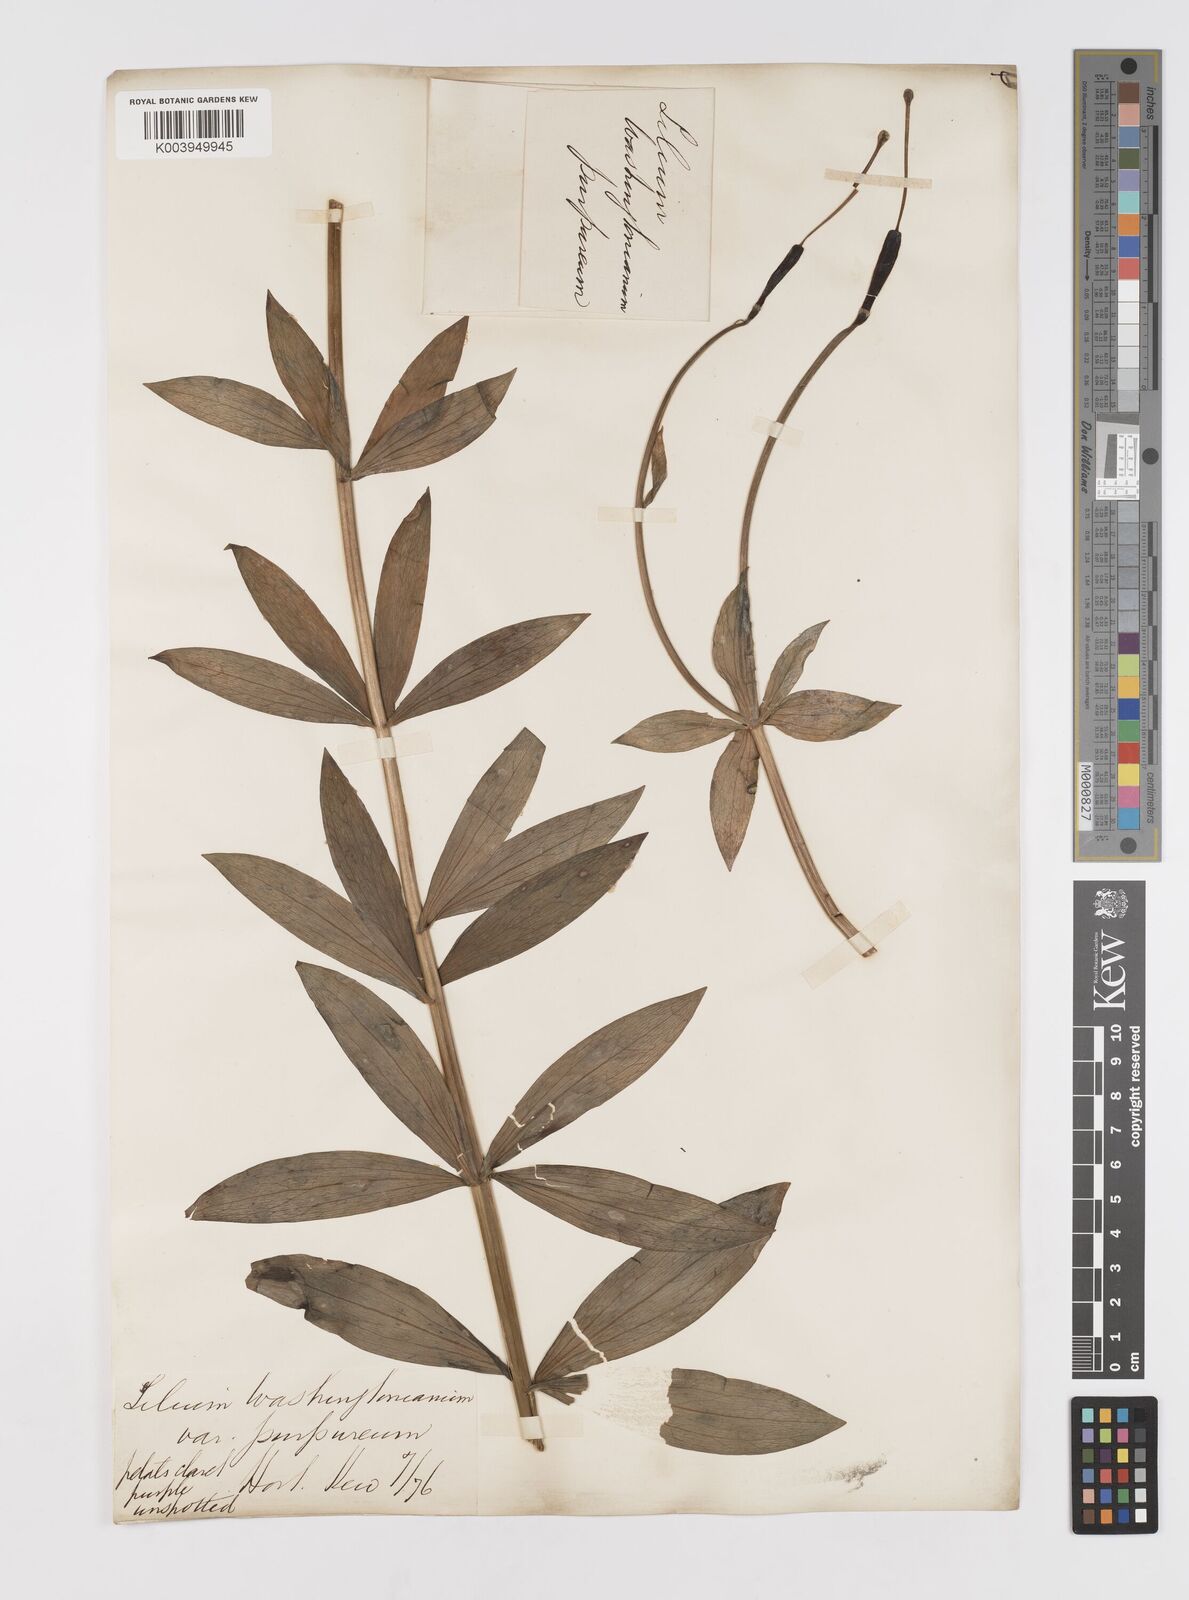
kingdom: Plantae
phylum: Tracheophyta
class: Liliopsida
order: Liliales
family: Liliaceae
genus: Lilium
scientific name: Lilium rubescens
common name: Chamise lily
